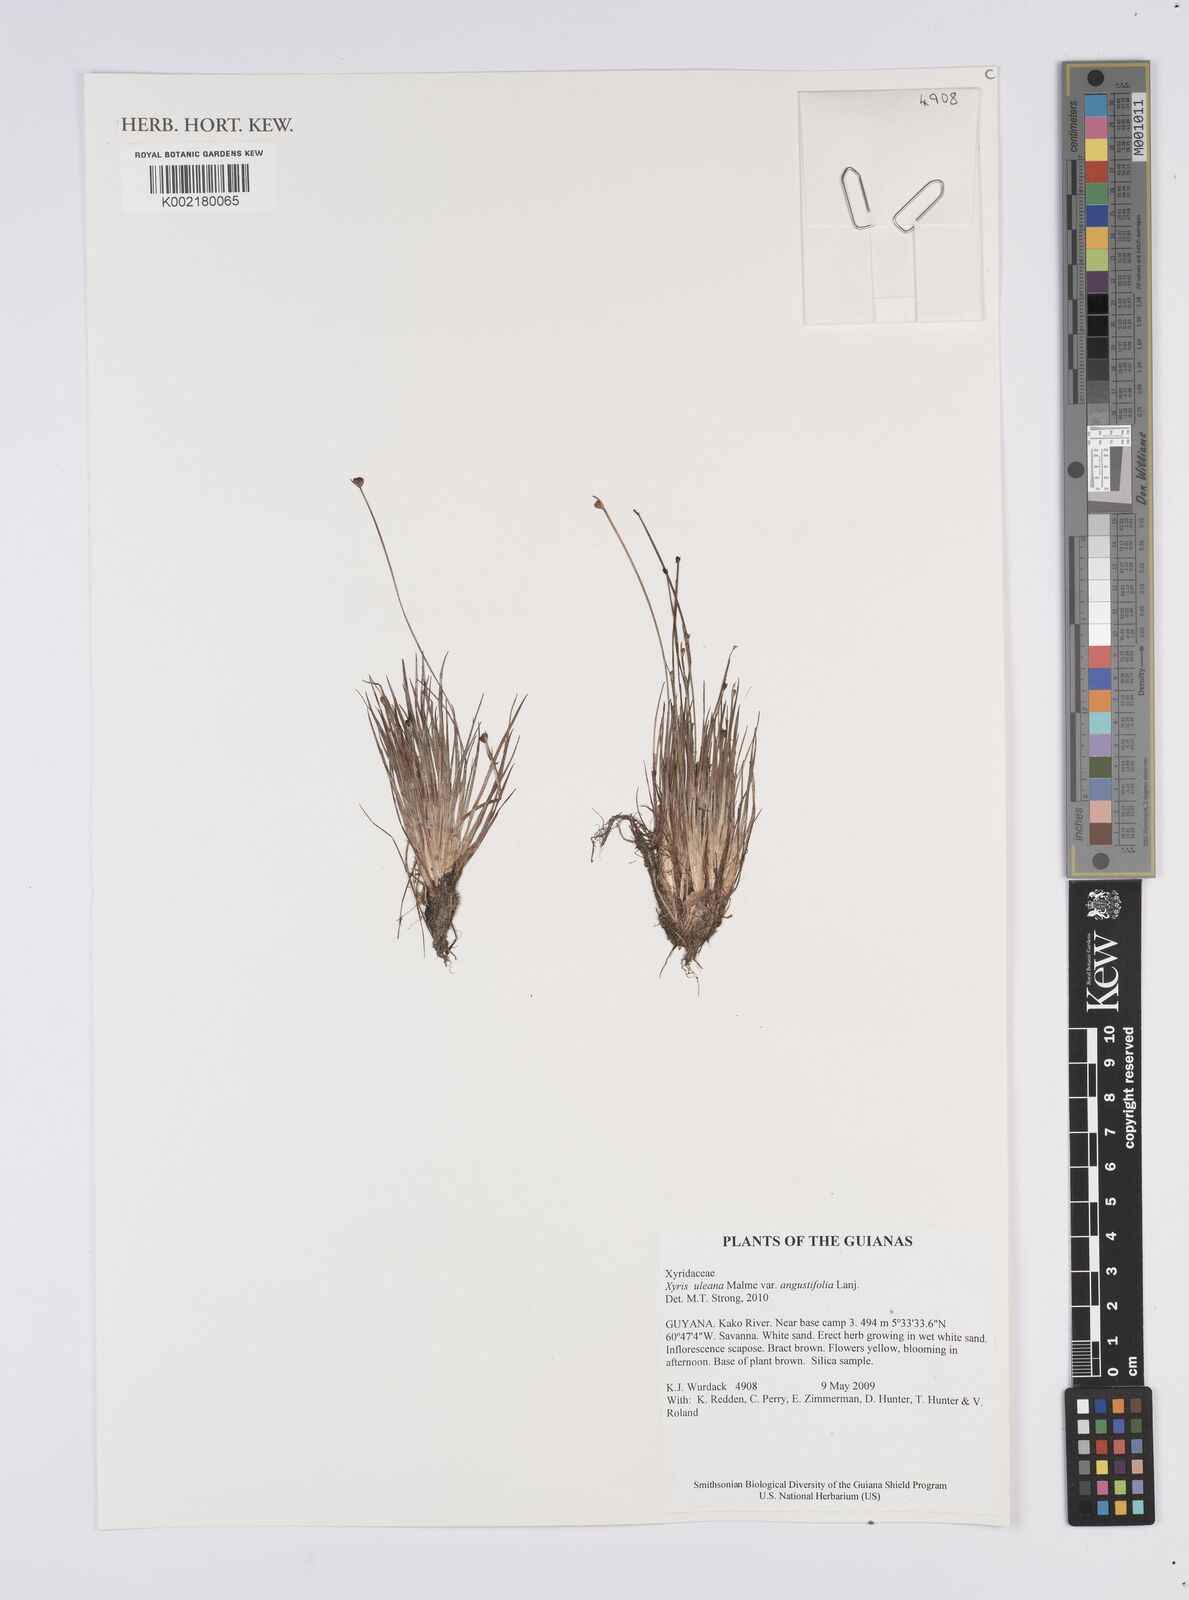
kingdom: Plantae
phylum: Tracheophyta
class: Liliopsida
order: Poales
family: Xyridaceae
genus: Xyris
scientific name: Xyris uleana
